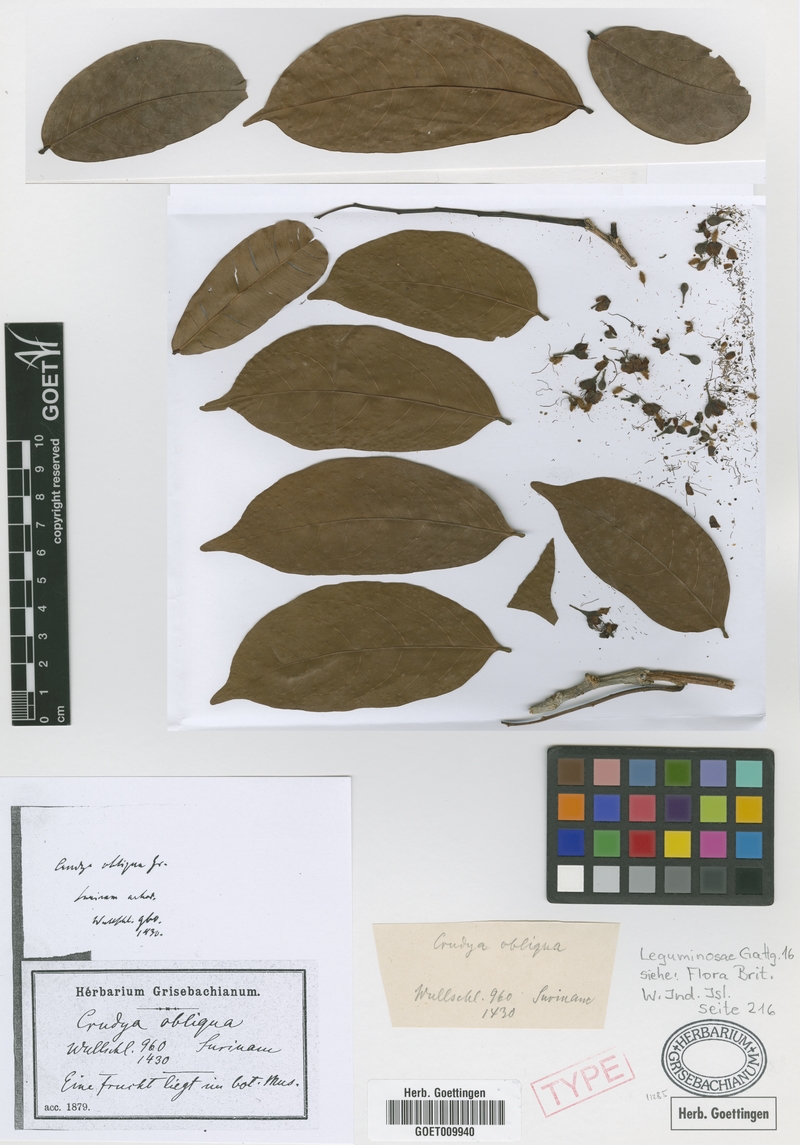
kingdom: Plantae
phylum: Tracheophyta
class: Magnoliopsida
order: Fabales
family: Fabaceae
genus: Crudia
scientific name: Crudia glaberrima
